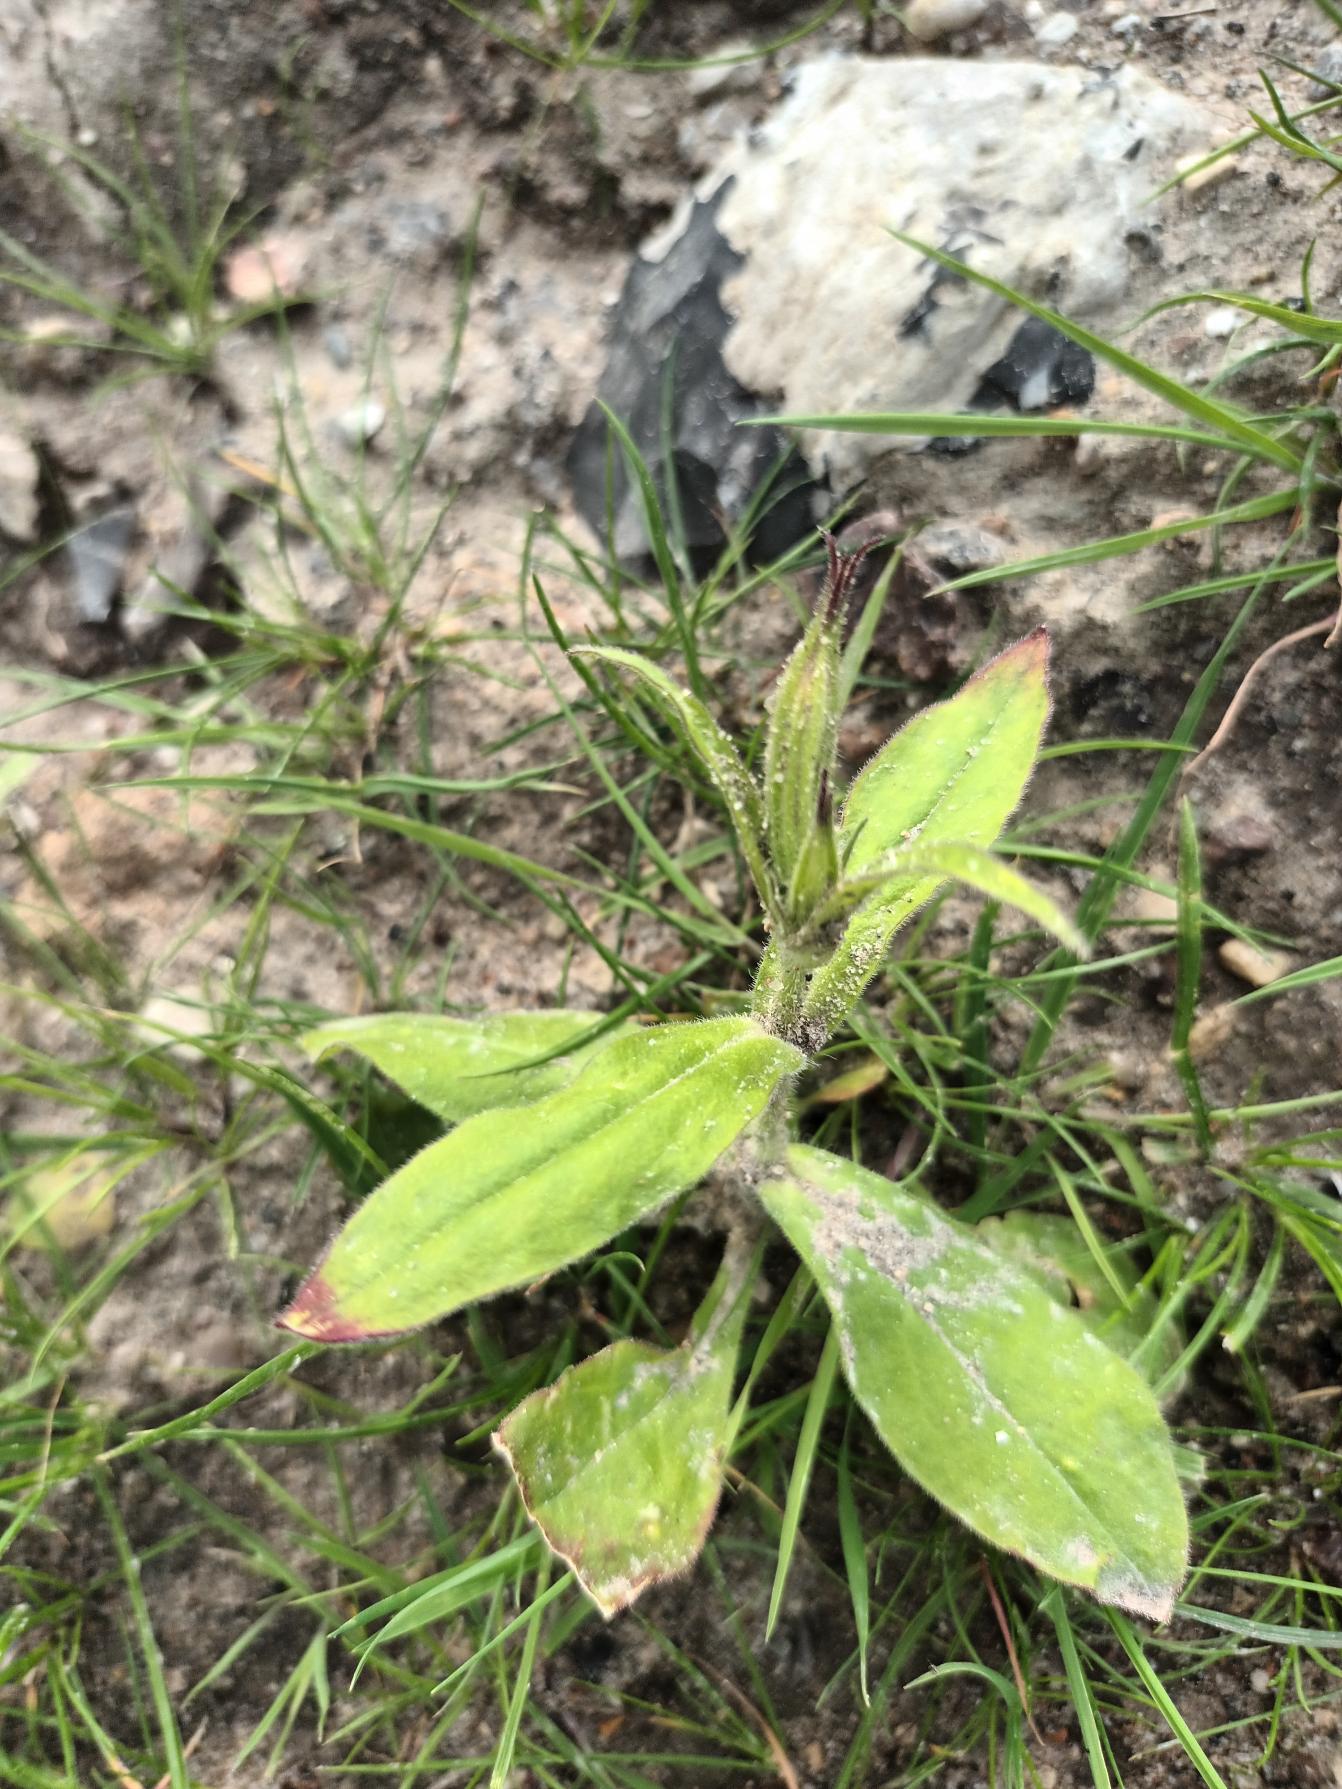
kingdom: Plantae
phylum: Tracheophyta
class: Magnoliopsida
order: Caryophyllales
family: Caryophyllaceae
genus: Silene
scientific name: Silene noctiflora
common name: Nat-limurt
